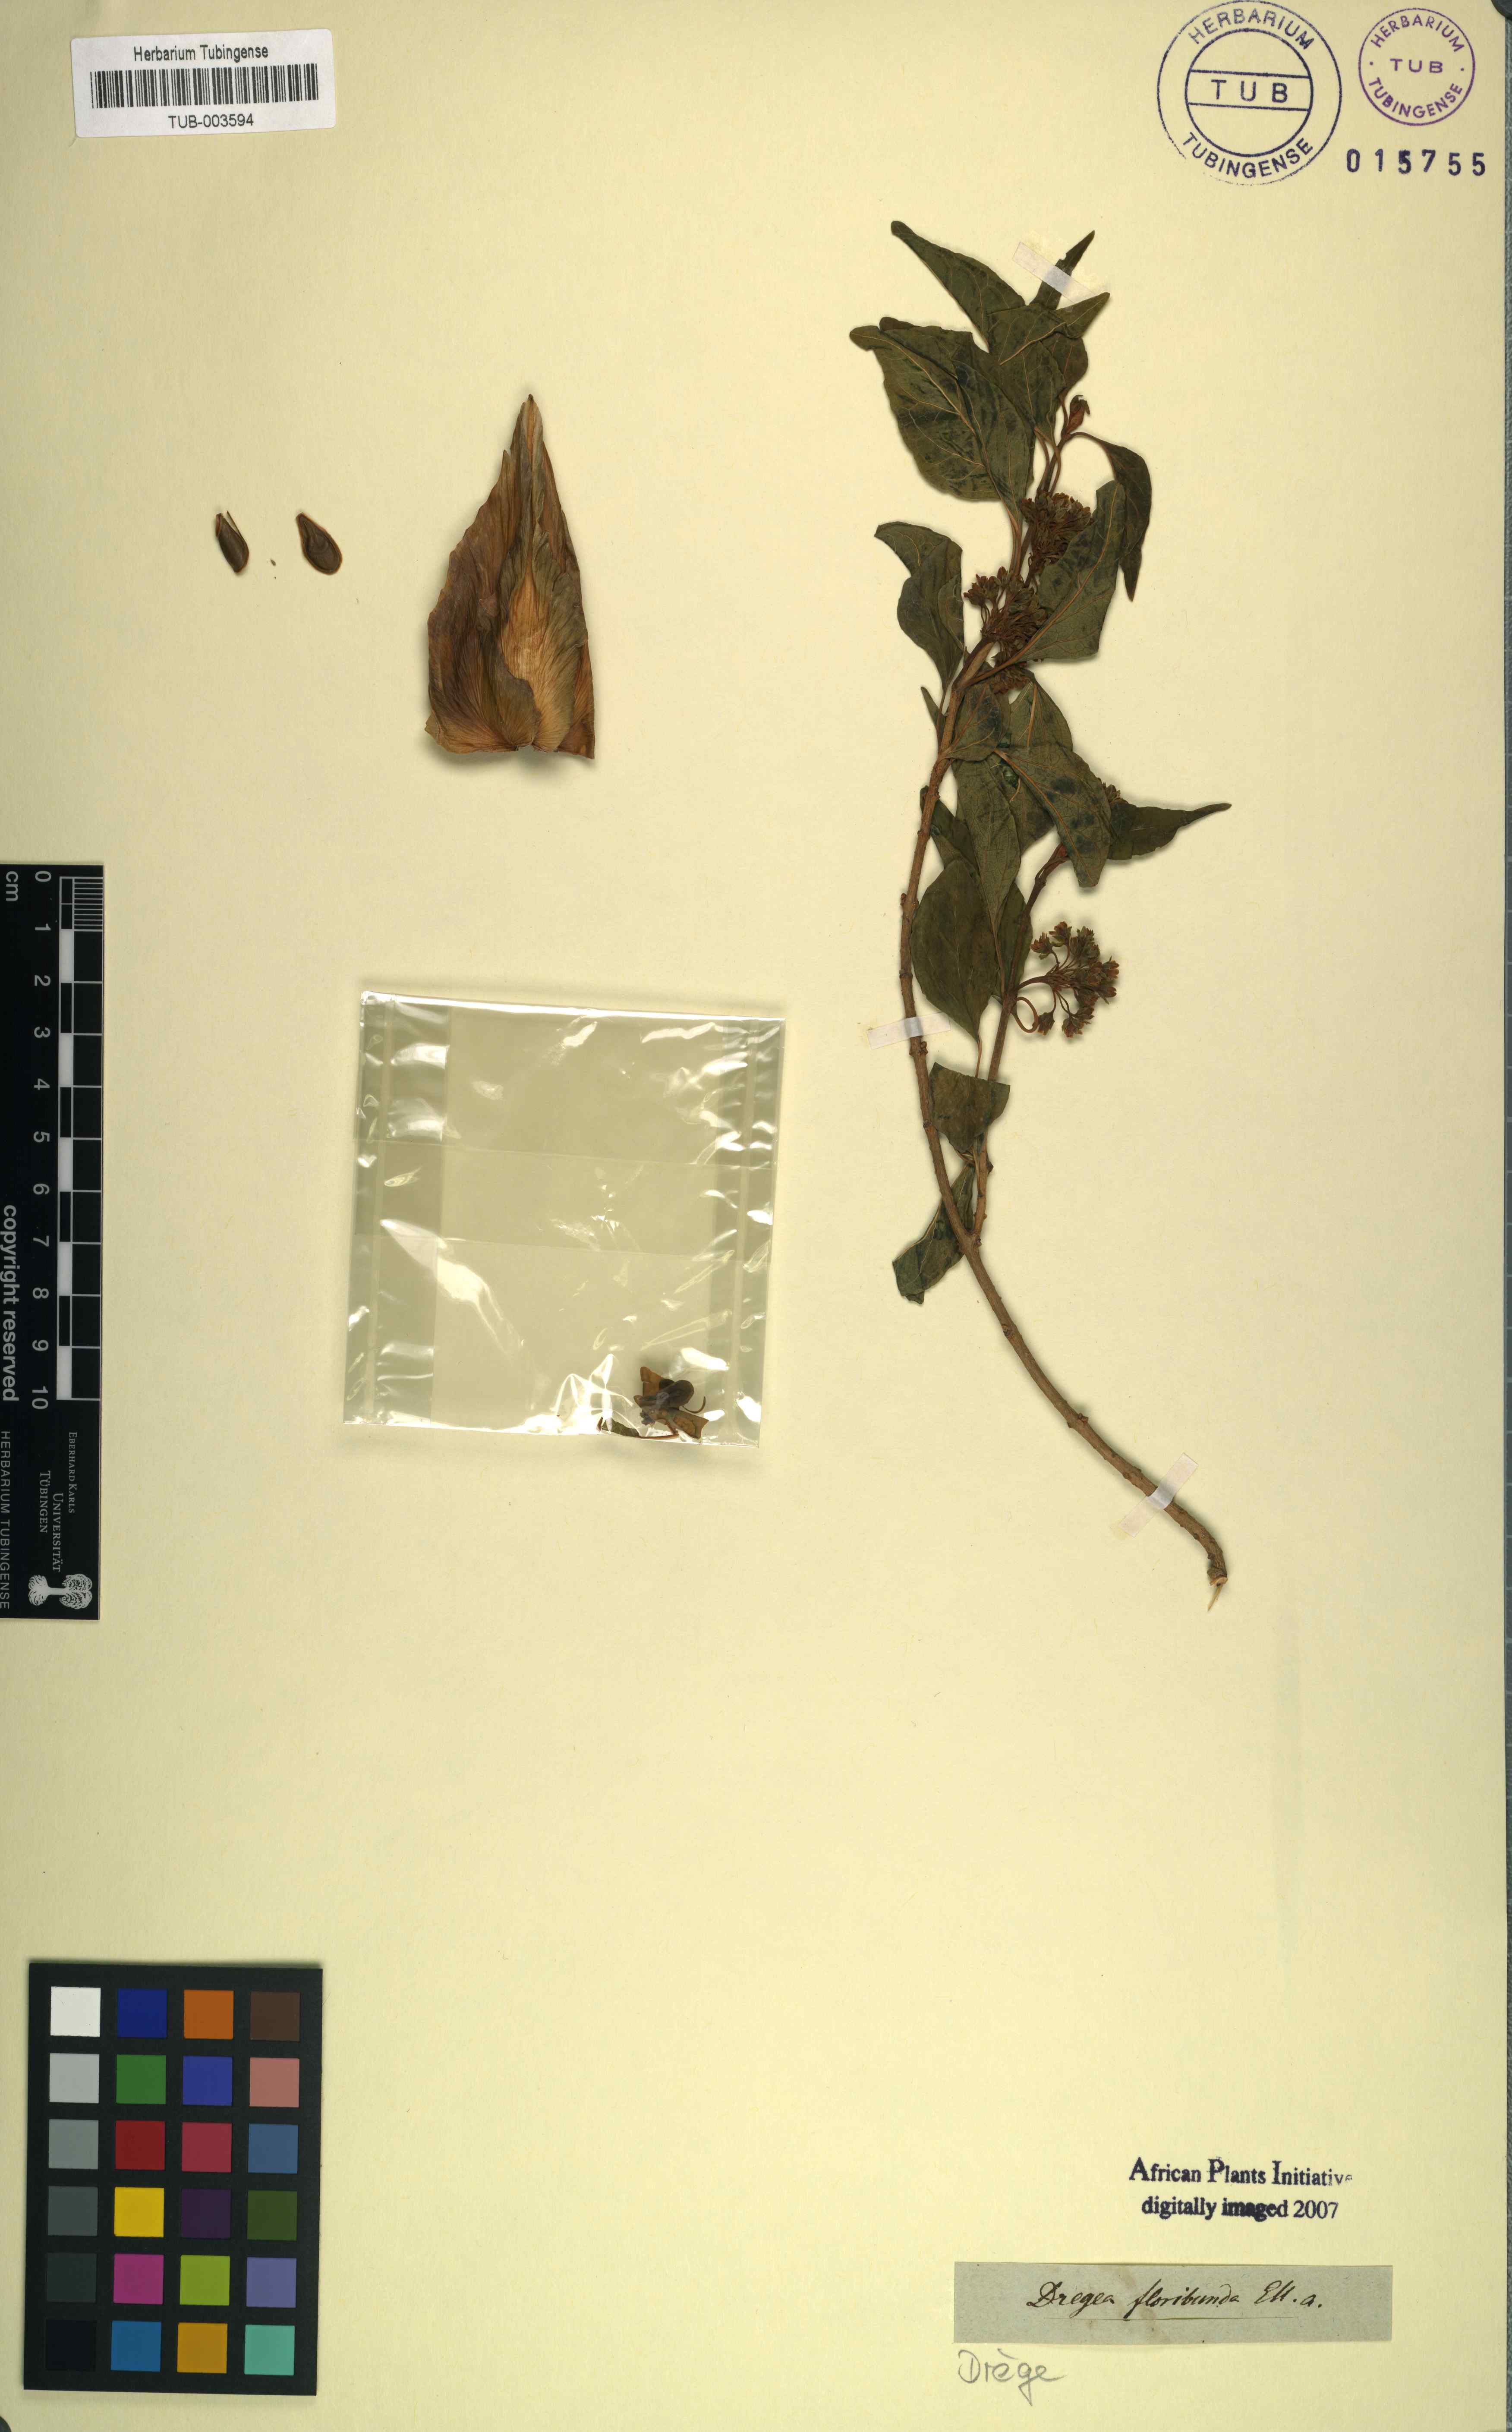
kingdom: Plantae
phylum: Tracheophyta
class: Magnoliopsida
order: Gentianales
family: Apocynaceae
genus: Stephanotis
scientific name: Stephanotis ernstmeyeri
